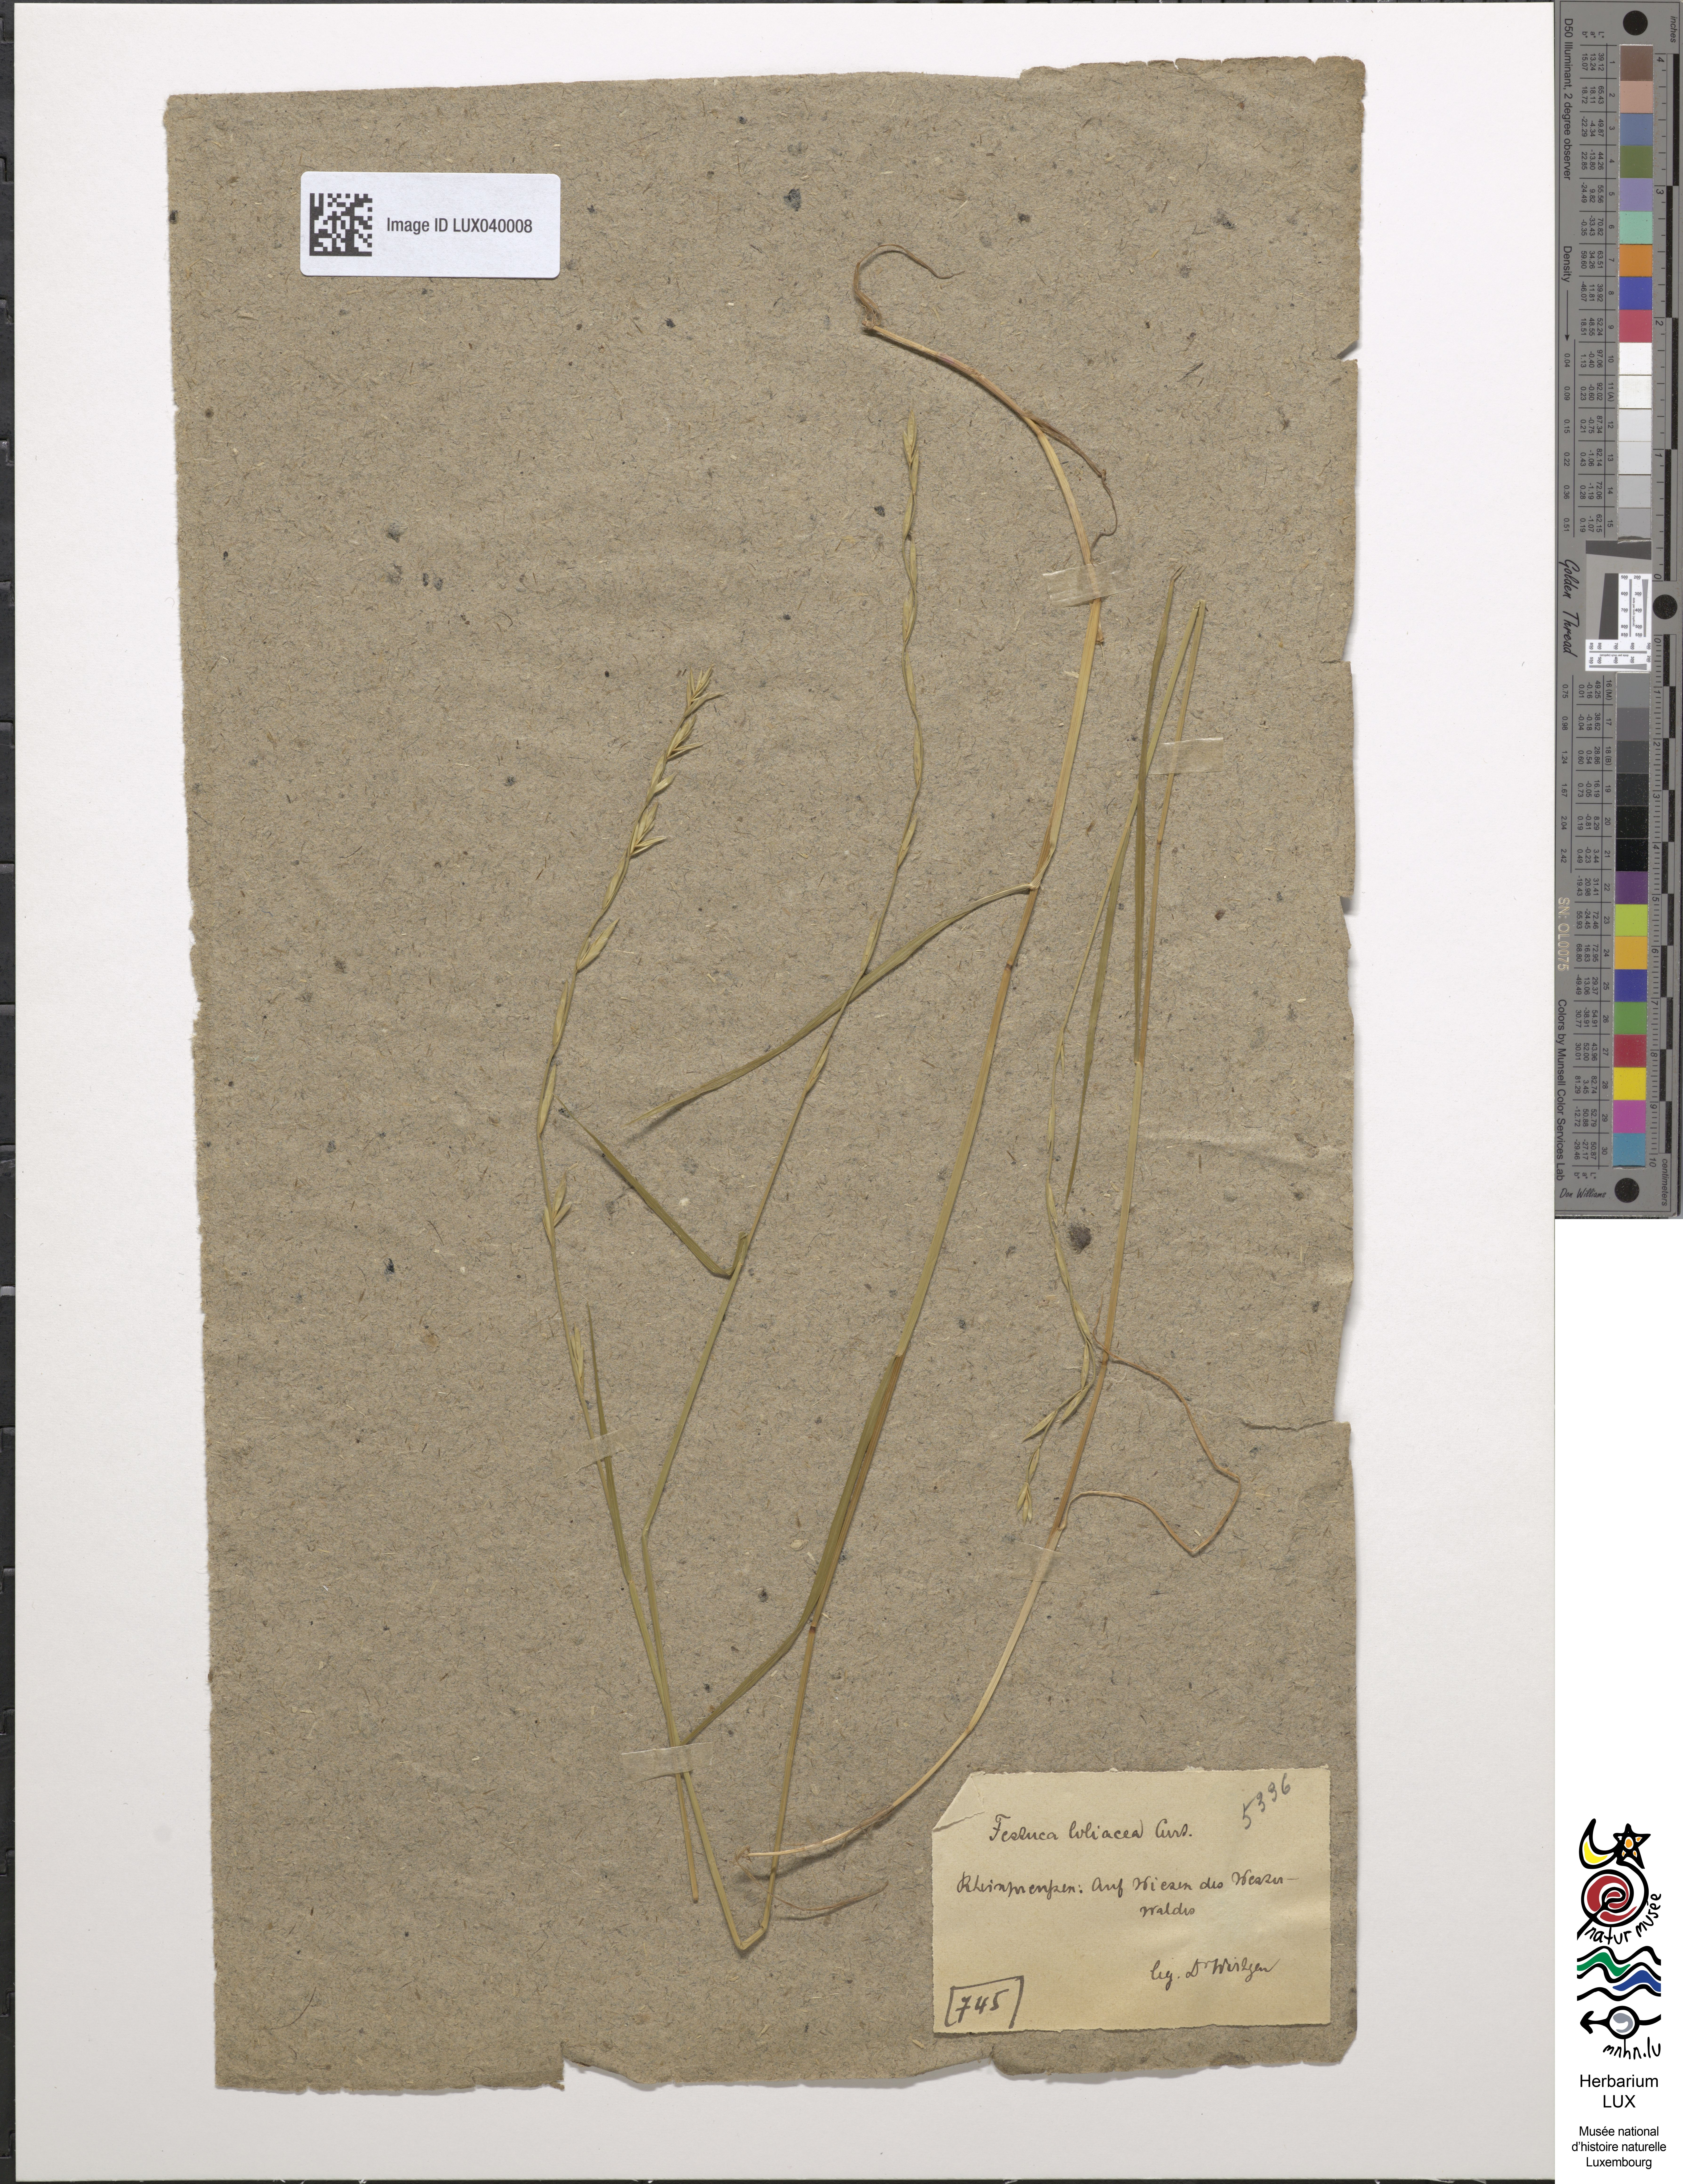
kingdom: Plantae
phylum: Tracheophyta
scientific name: Tracheophyta
